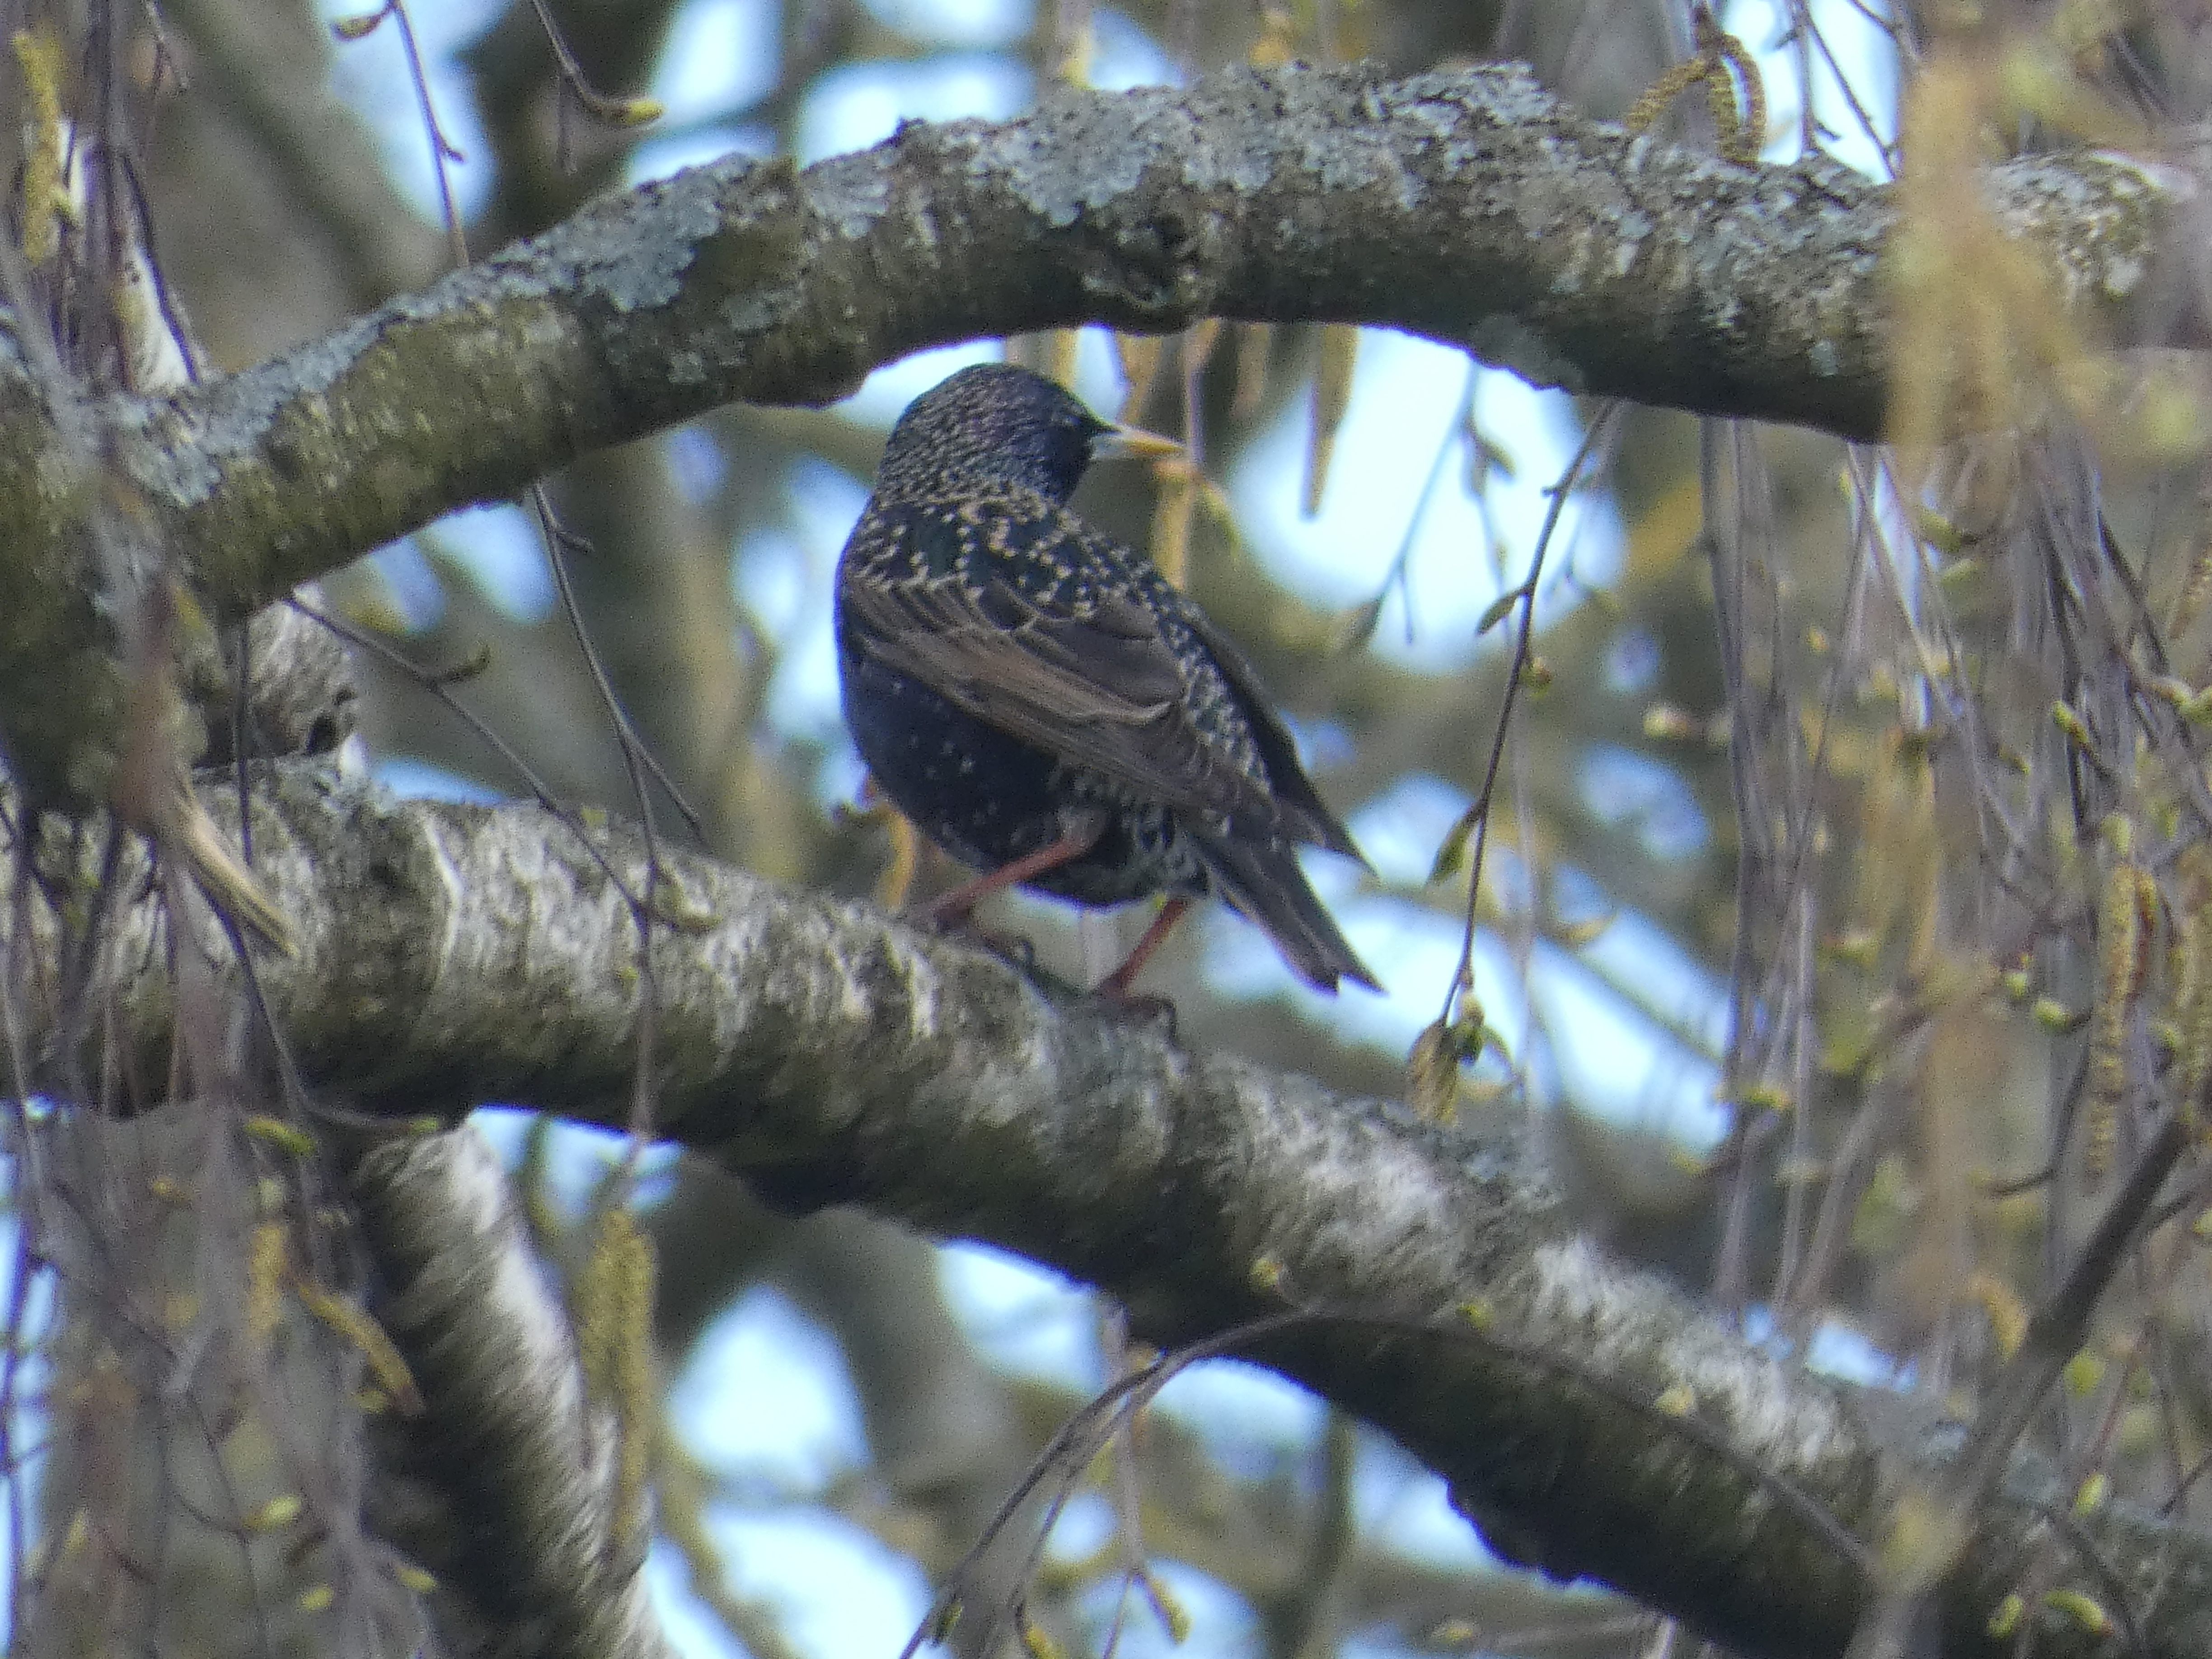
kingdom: Animalia
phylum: Chordata
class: Aves
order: Passeriformes
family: Sturnidae
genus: Sturnus
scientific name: Sturnus vulgaris
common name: Stær
